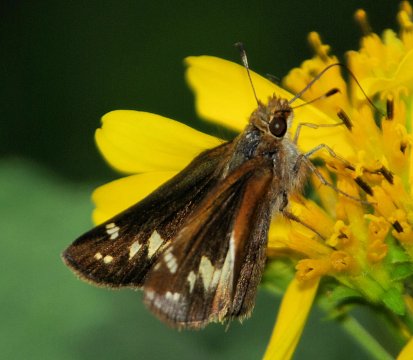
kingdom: Animalia
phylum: Arthropoda
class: Insecta
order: Lepidoptera
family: Hesperiidae
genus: Lon
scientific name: Lon zabulon
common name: Zabulon Skipper
